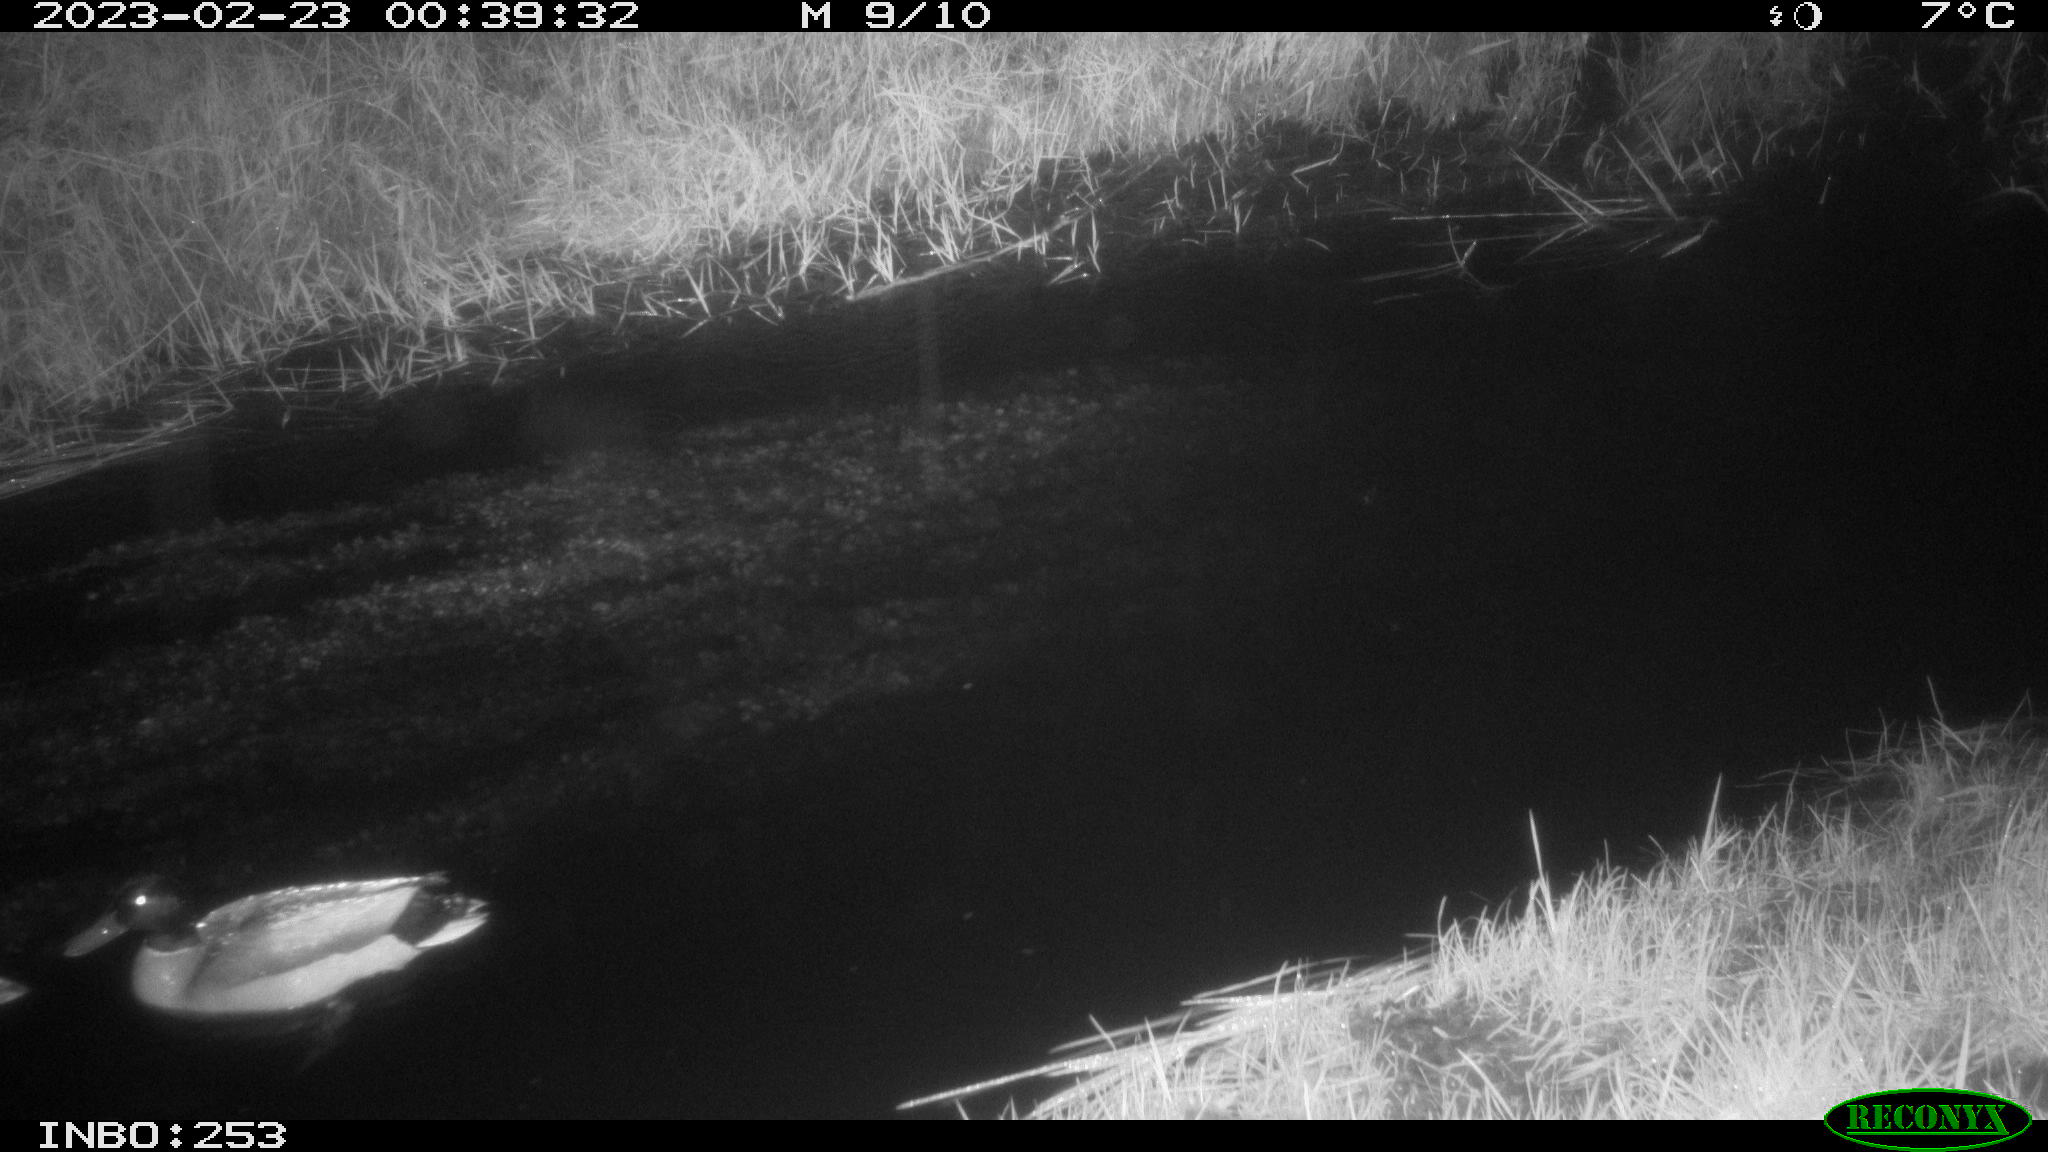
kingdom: Animalia
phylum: Chordata
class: Aves
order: Anseriformes
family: Anatidae
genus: Anas
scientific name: Anas
